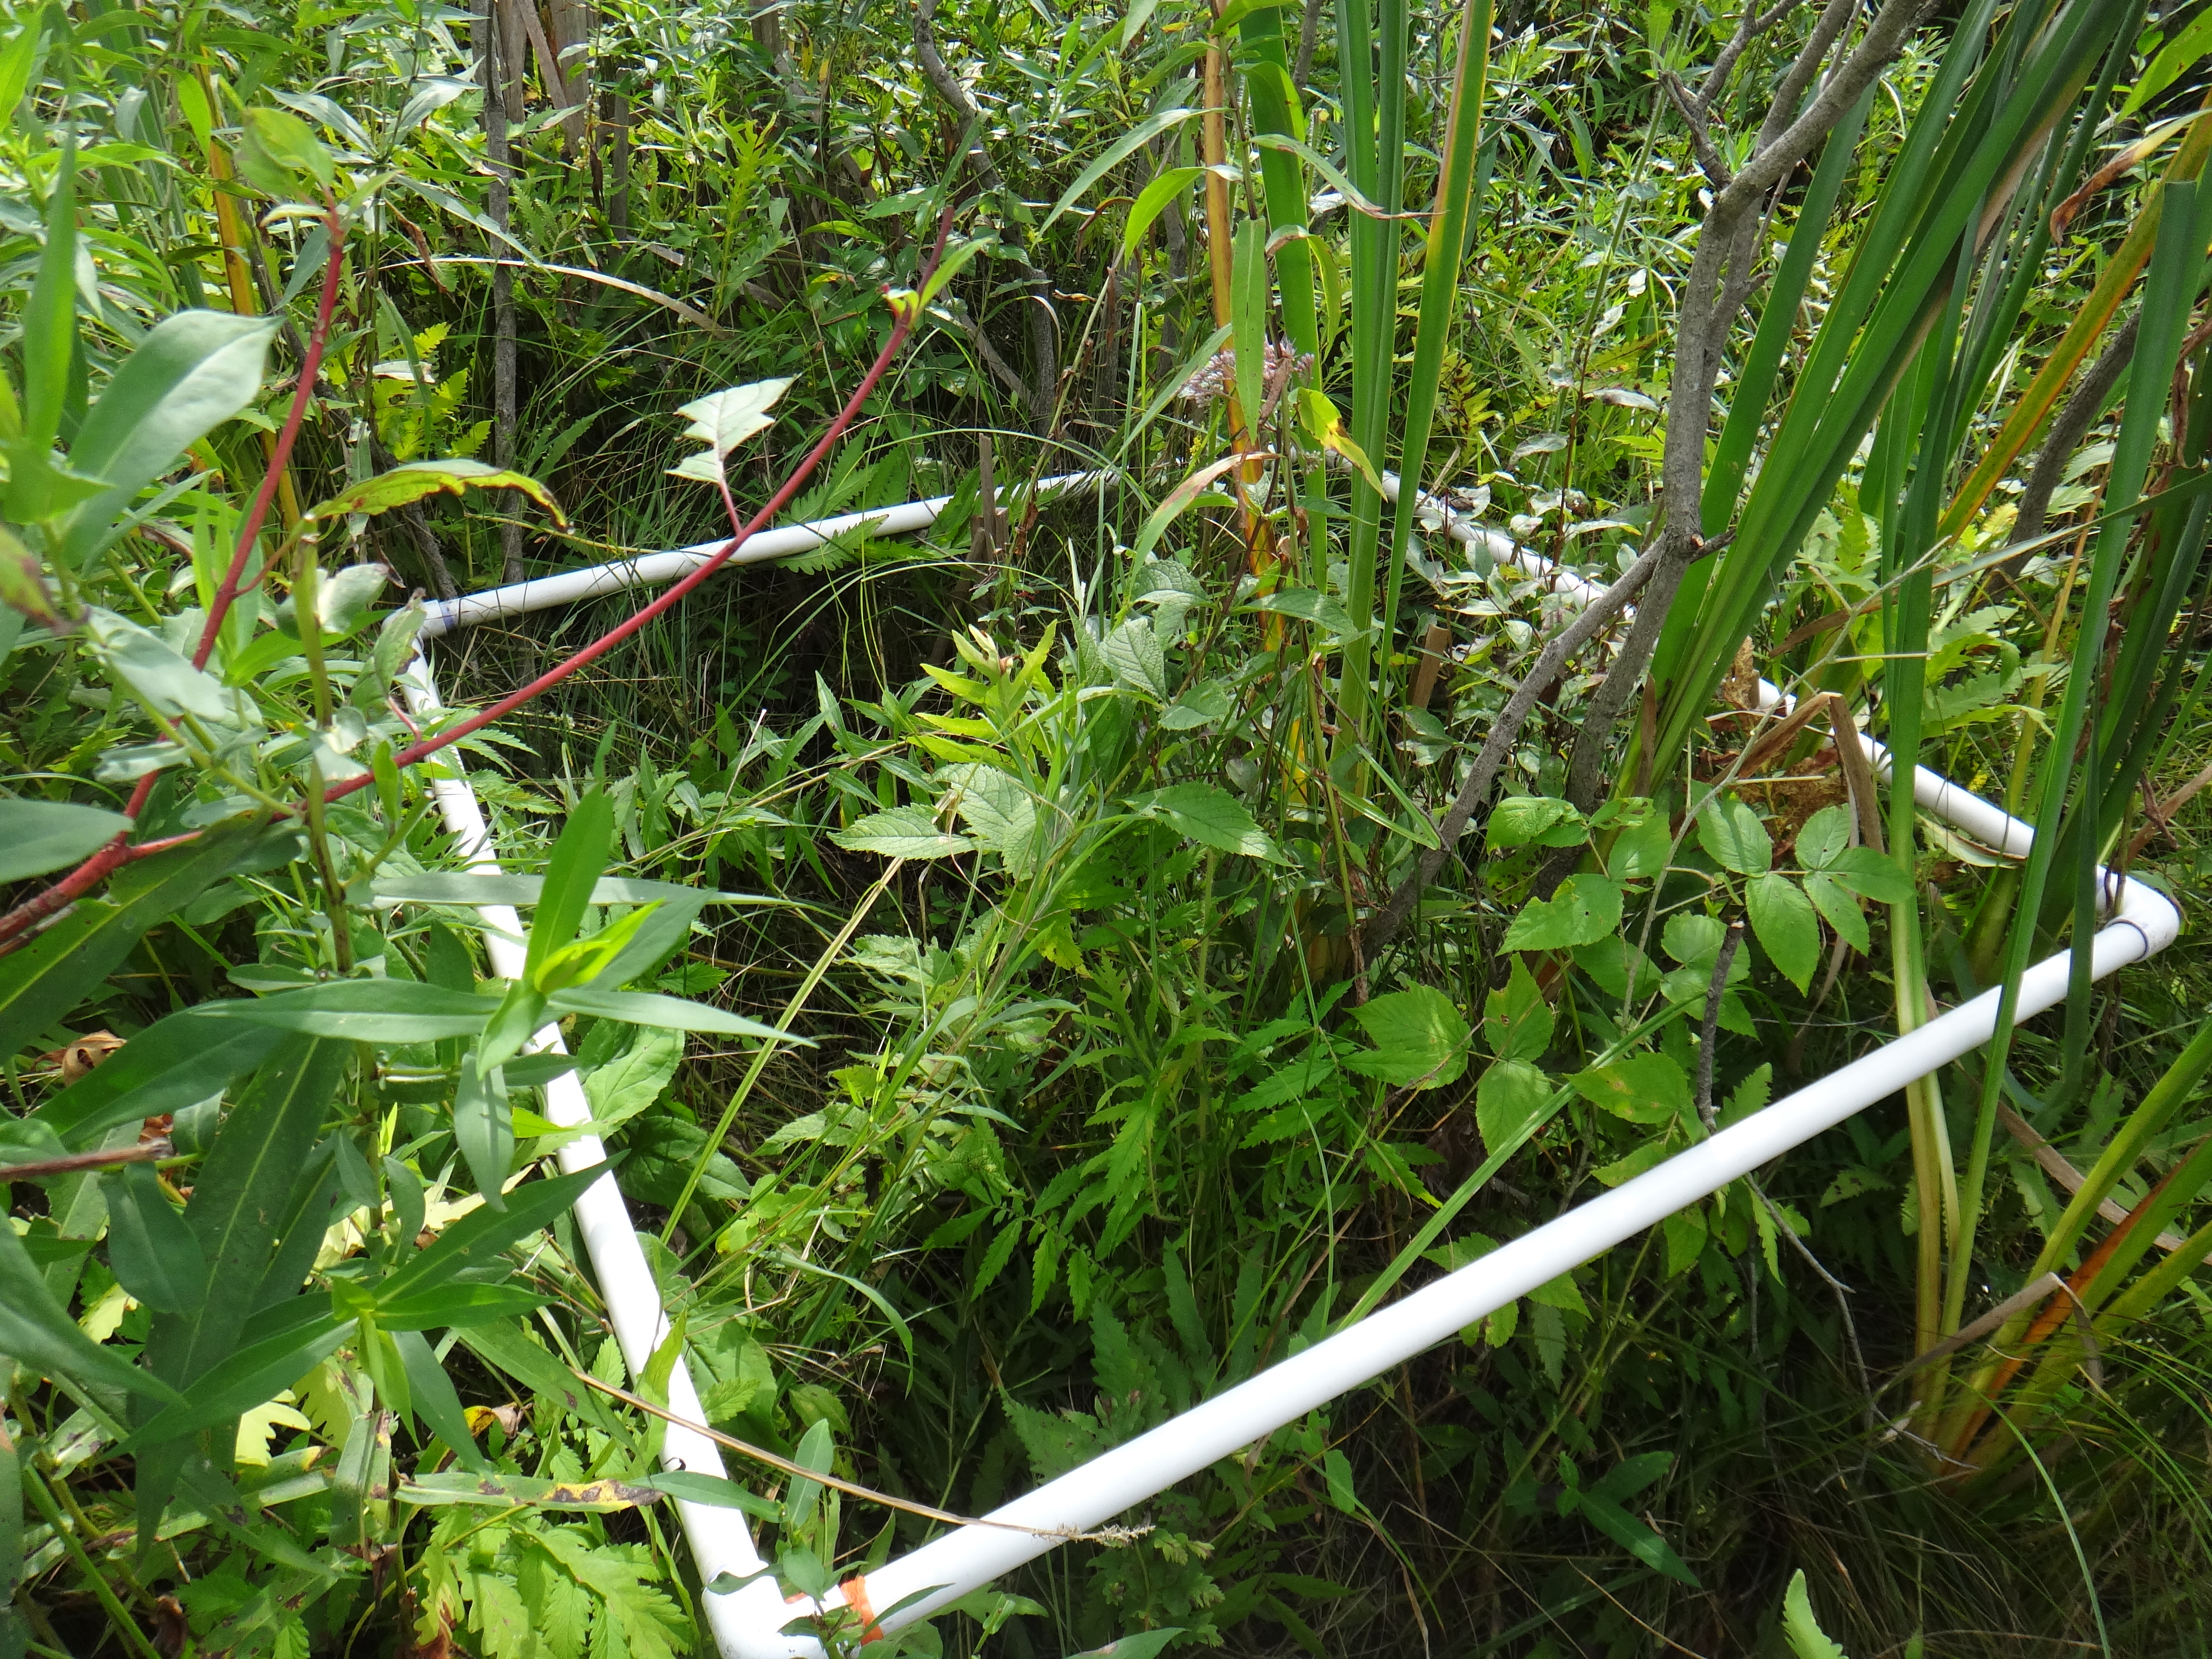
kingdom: Plantae
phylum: Tracheophyta
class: Magnoliopsida
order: Rosales
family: Rosaceae
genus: Agrimonia
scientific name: Agrimonia parviflora
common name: Harvest-lice
